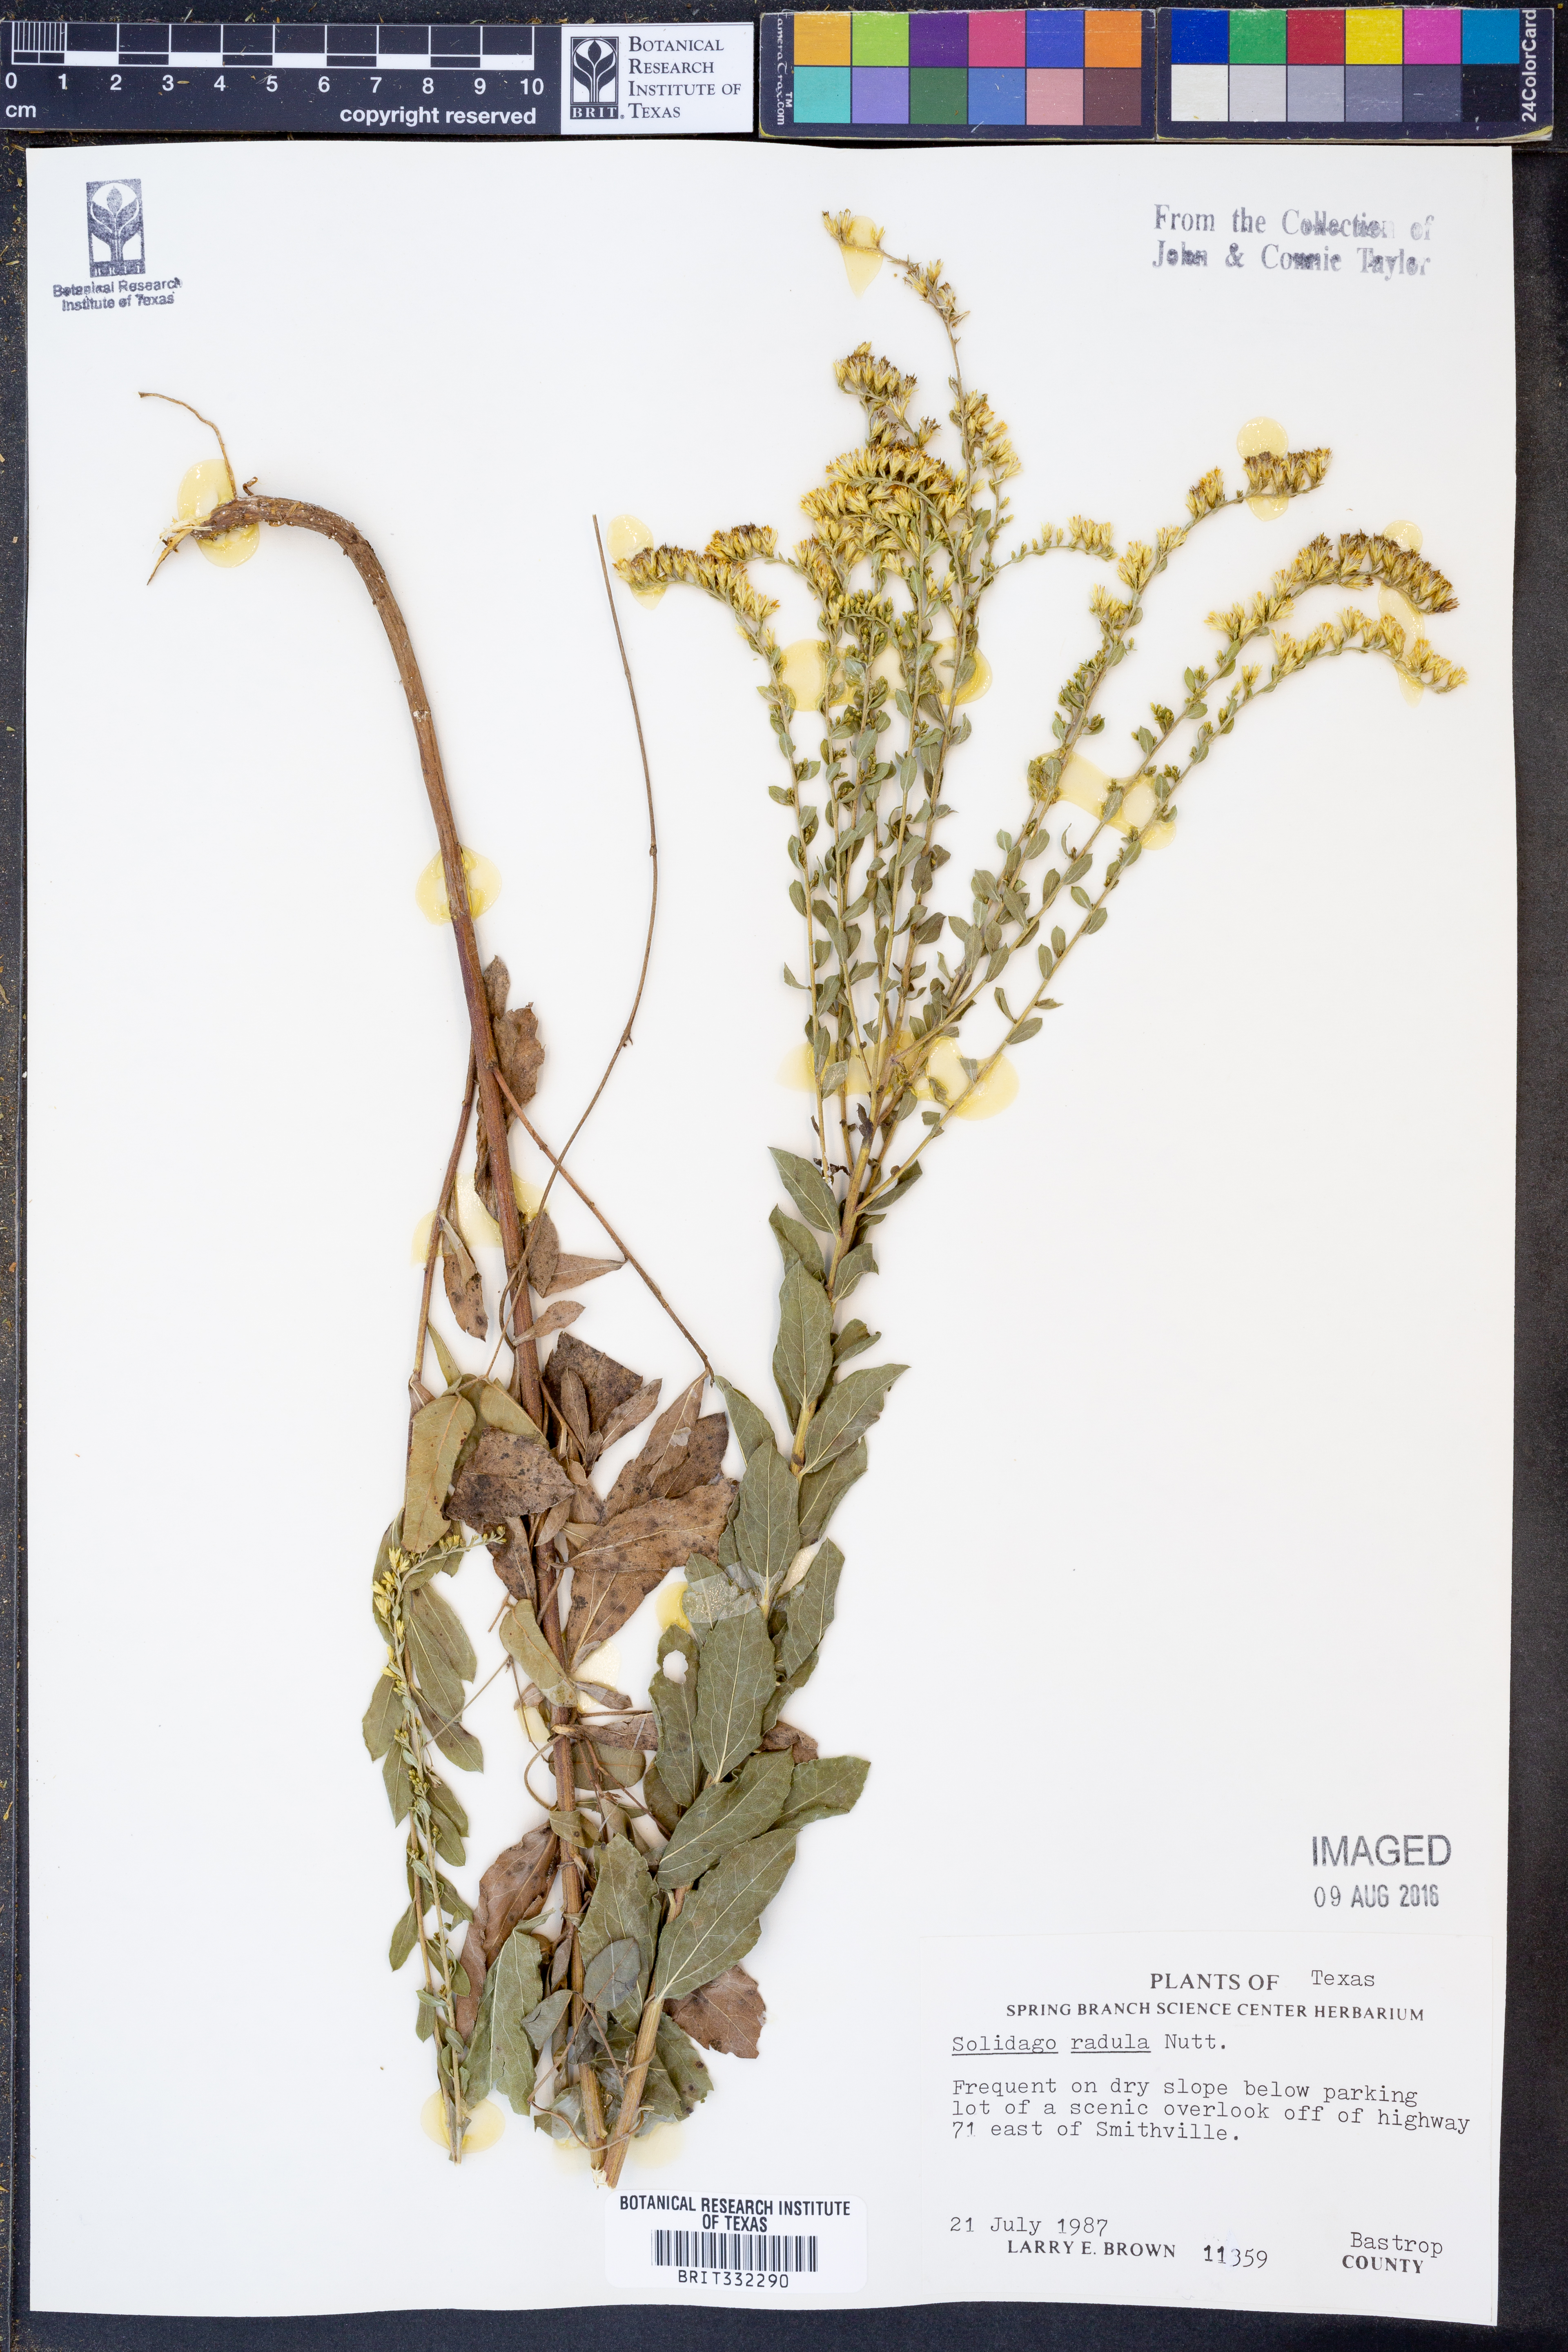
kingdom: Plantae
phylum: Tracheophyta
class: Magnoliopsida
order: Asterales
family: Asteraceae
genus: Solidago
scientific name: Solidago radula
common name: Western rough goldenrod
